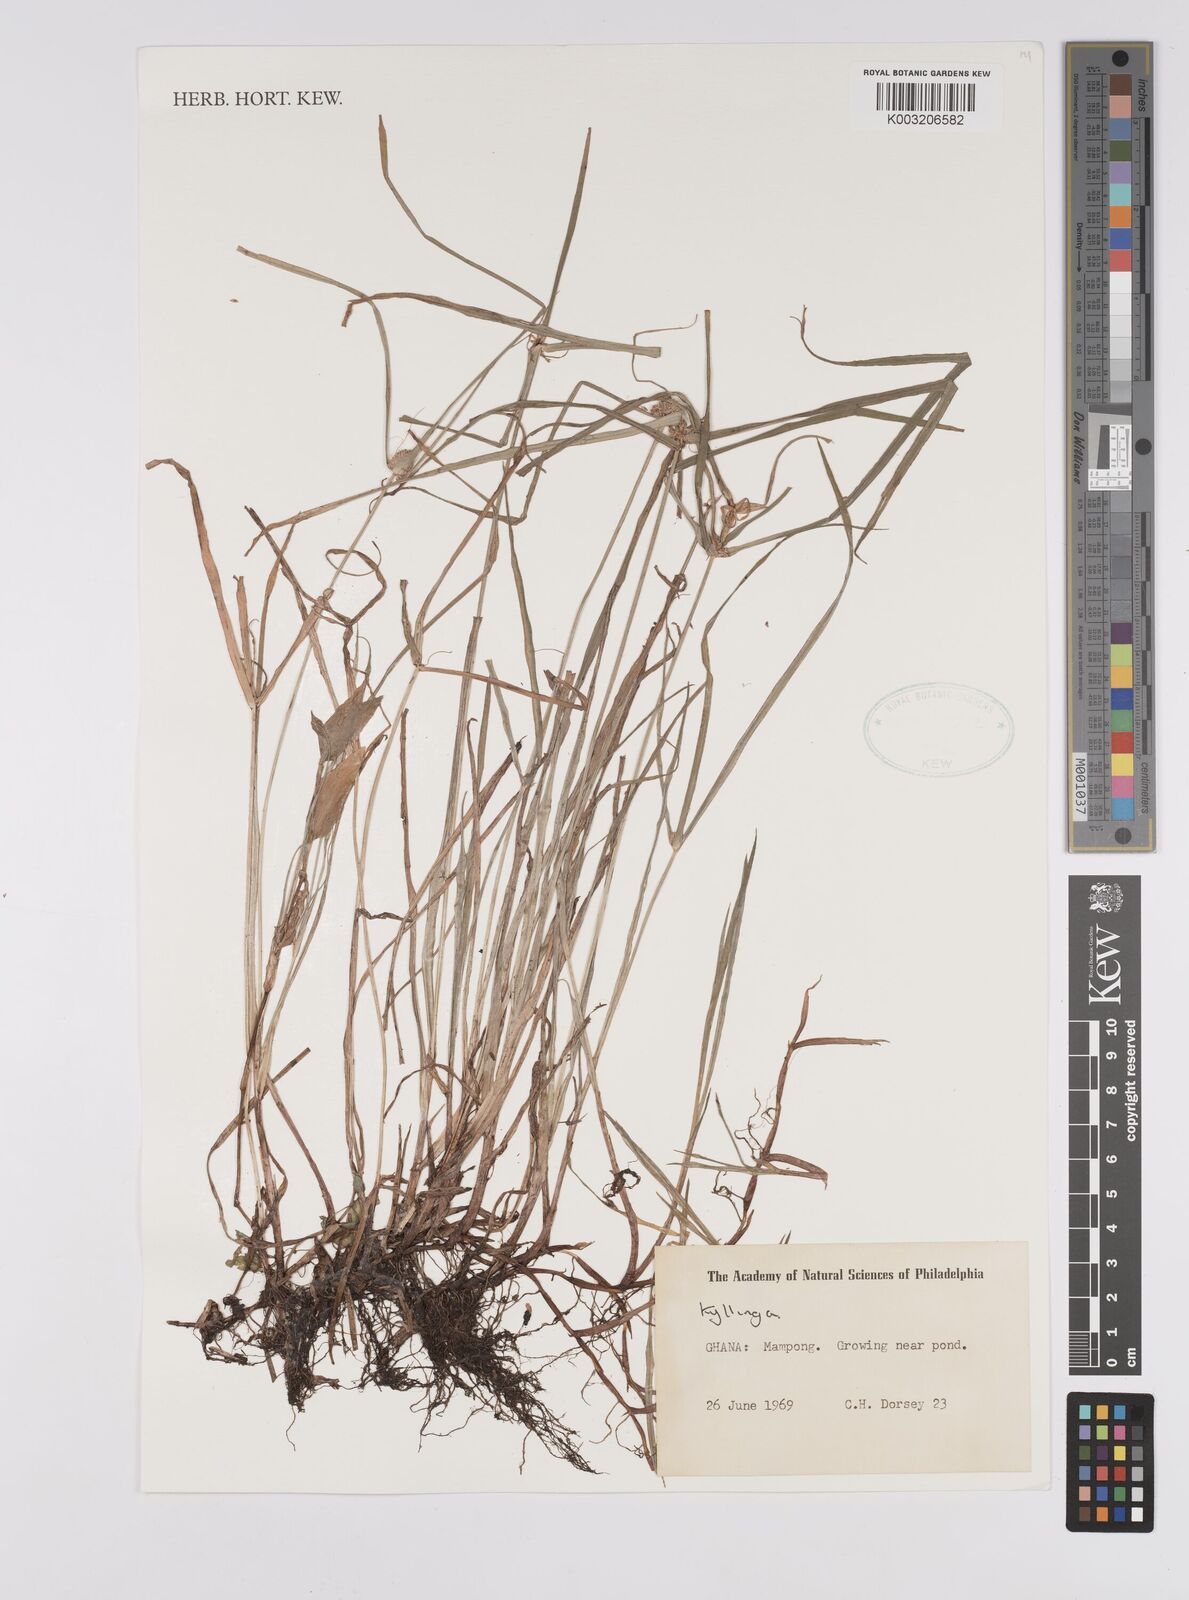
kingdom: Plantae
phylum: Tracheophyta
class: Liliopsida
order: Poales
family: Cyperaceae
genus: Cyperus
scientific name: Cyperus nemoralis
